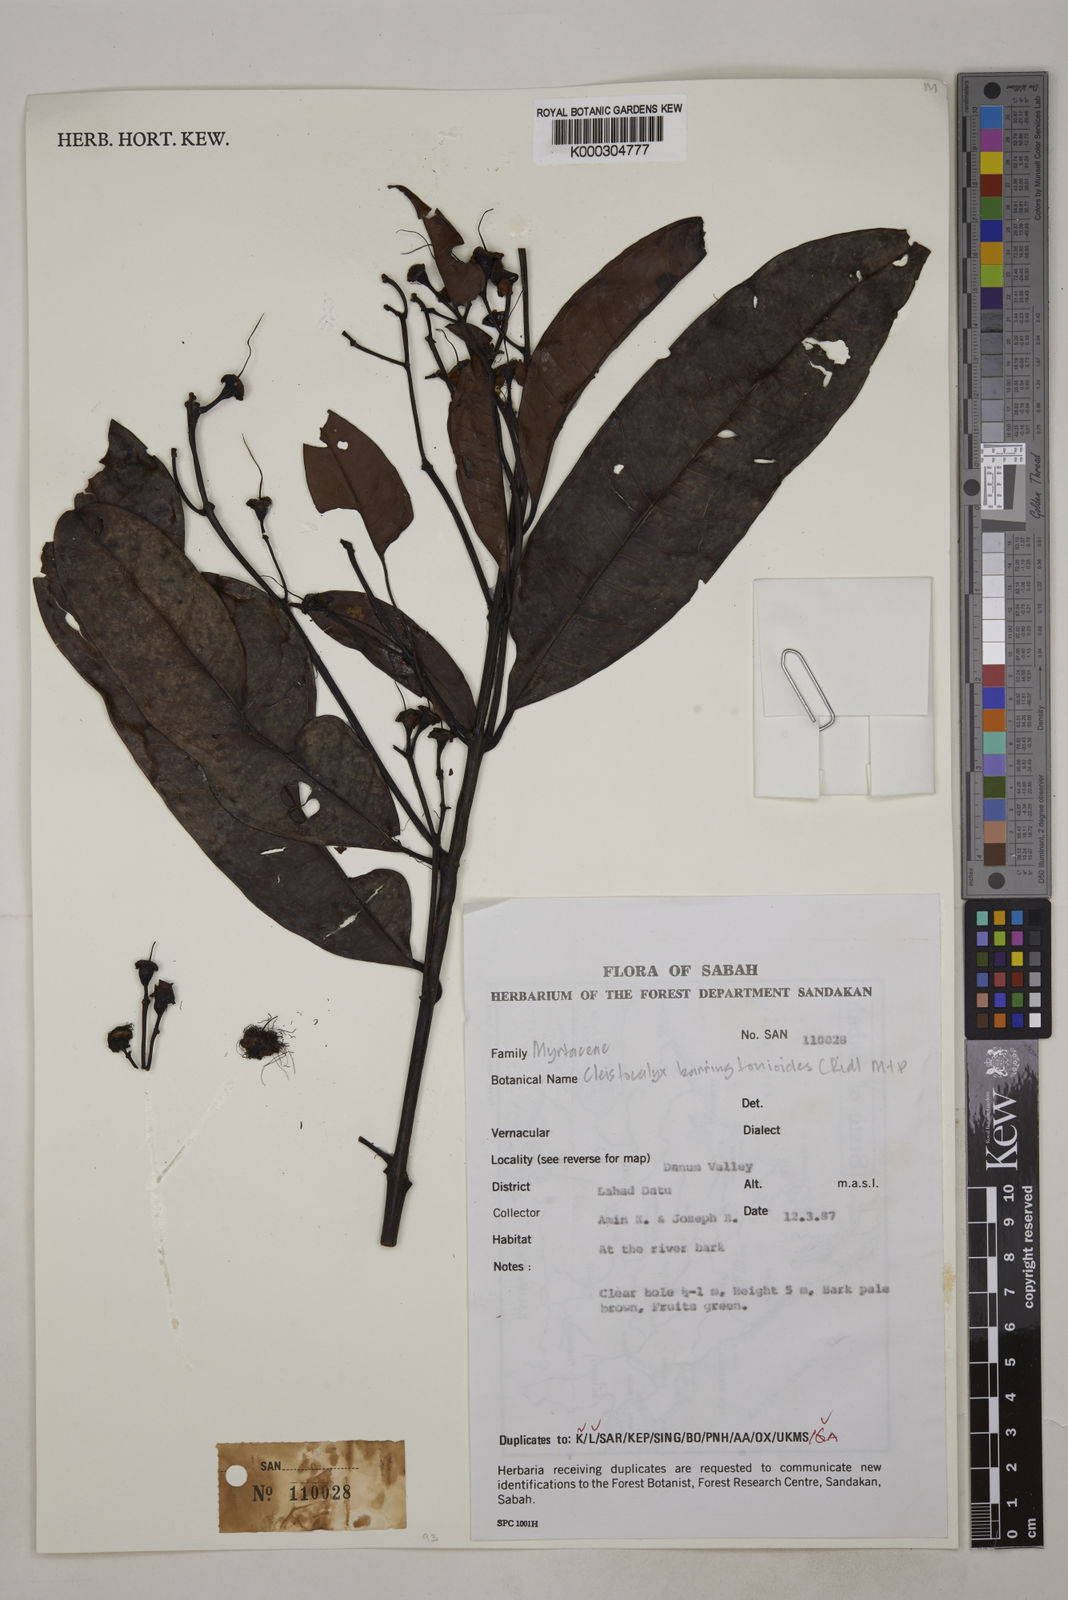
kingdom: Plantae
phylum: Tracheophyta
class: Magnoliopsida
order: Myrtales
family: Myrtaceae
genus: Syzygium
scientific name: Syzygium
